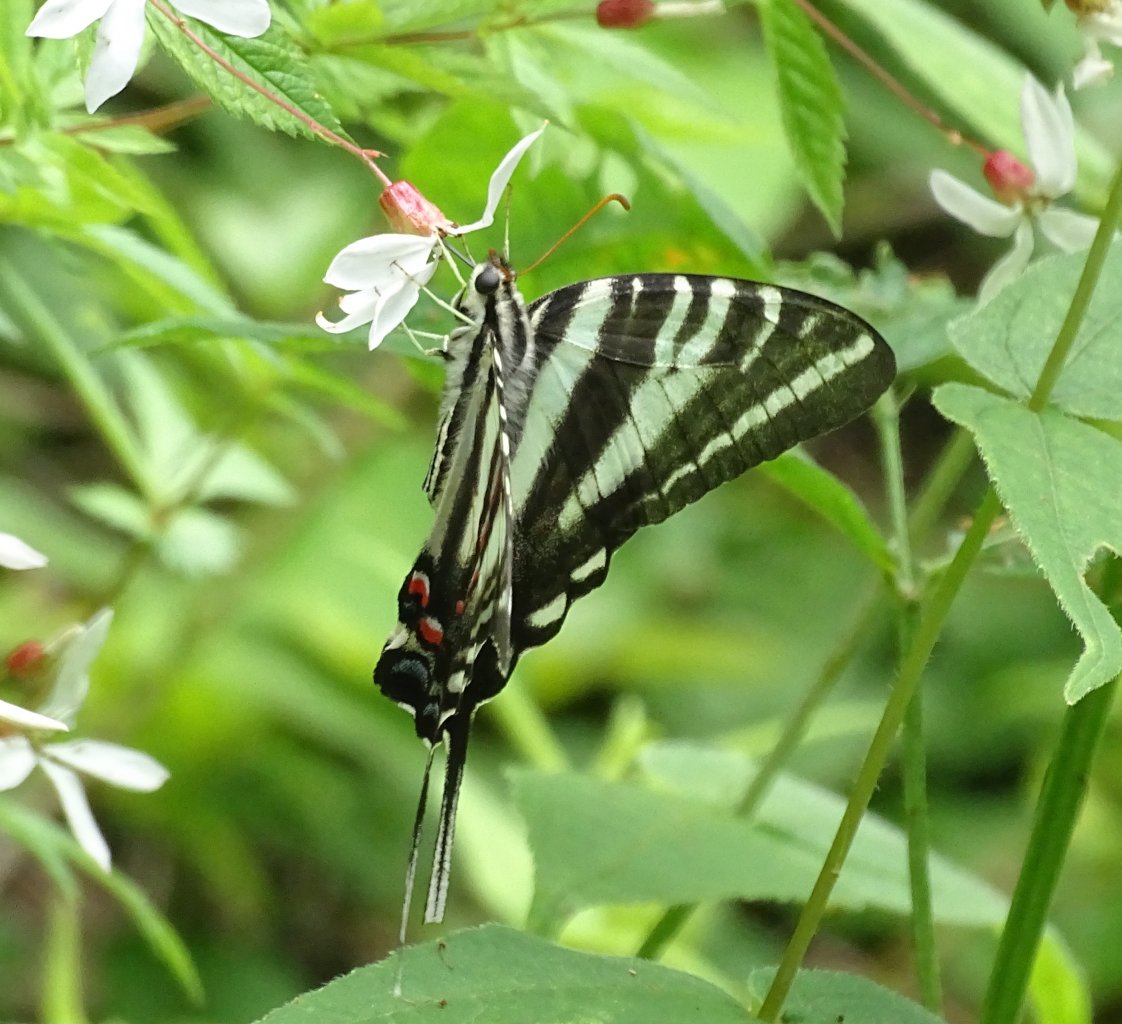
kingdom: Animalia
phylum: Arthropoda
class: Insecta
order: Lepidoptera
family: Papilionidae
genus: Protographium
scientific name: Protographium marcellus
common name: Zebra Swallowtail
